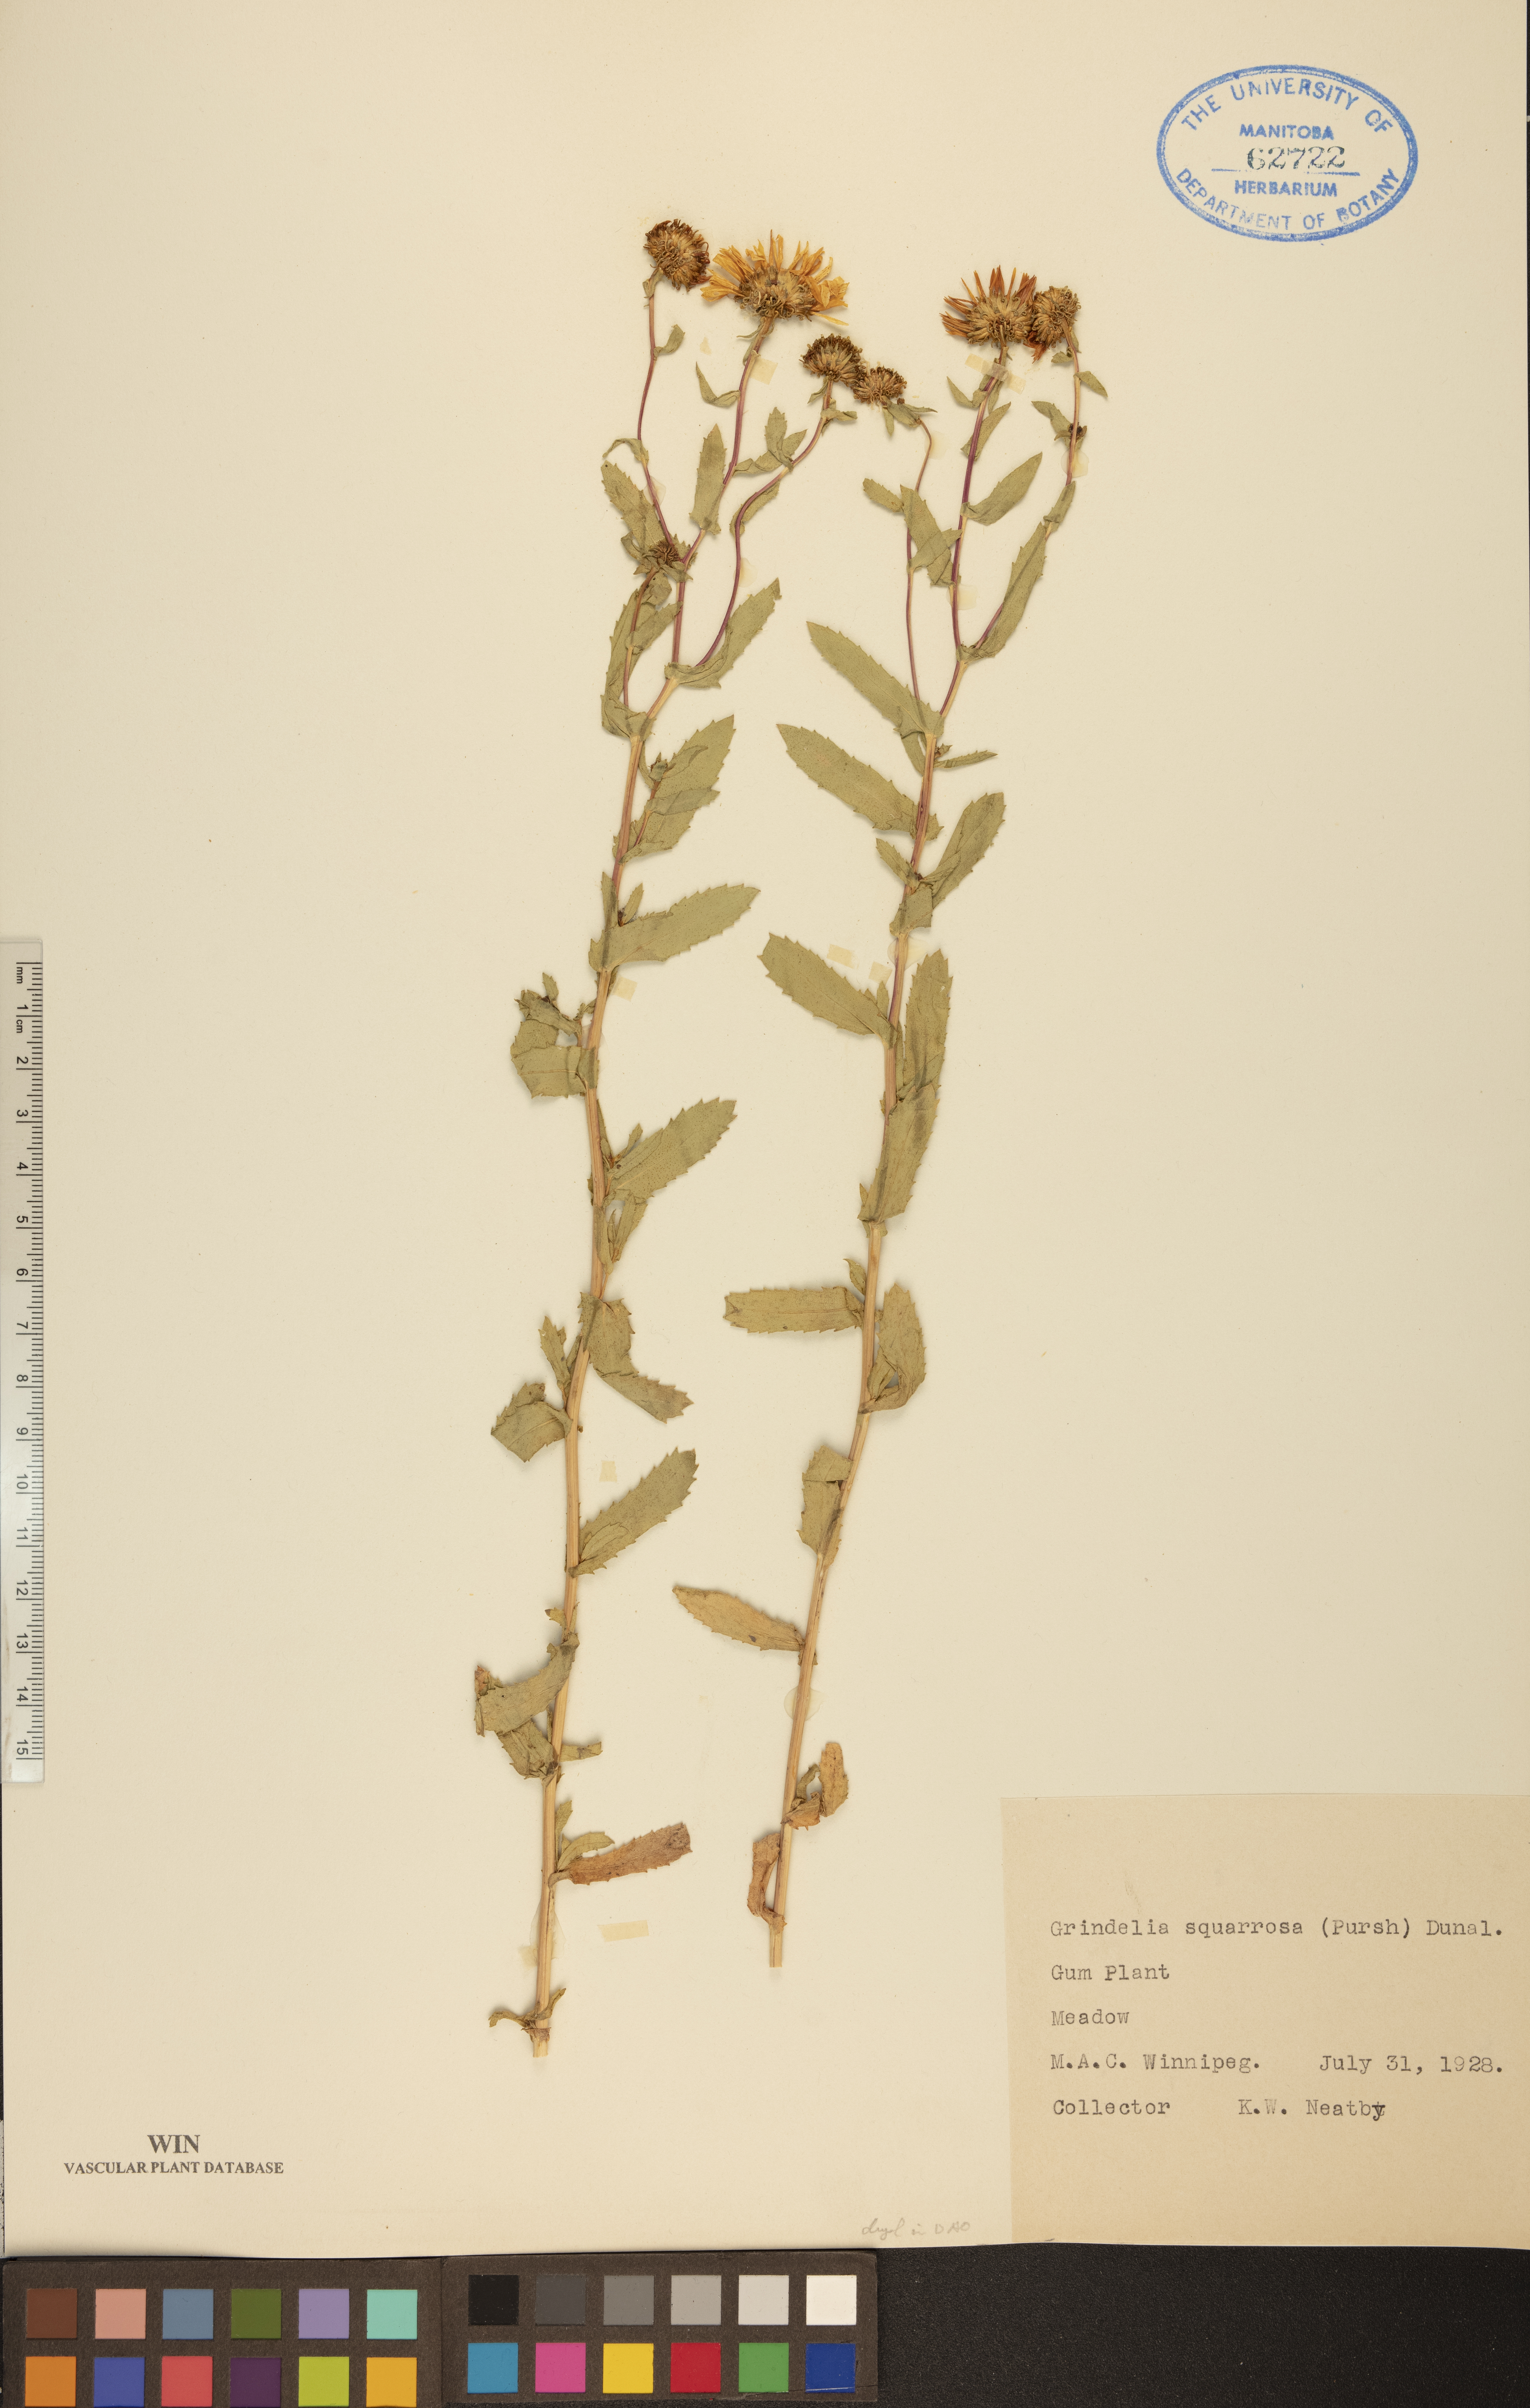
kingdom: Plantae
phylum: Tracheophyta
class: Magnoliopsida
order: Asterales
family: Asteraceae
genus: Grindelia
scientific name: Grindelia squarrosa
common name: Curly-cup gumweed
